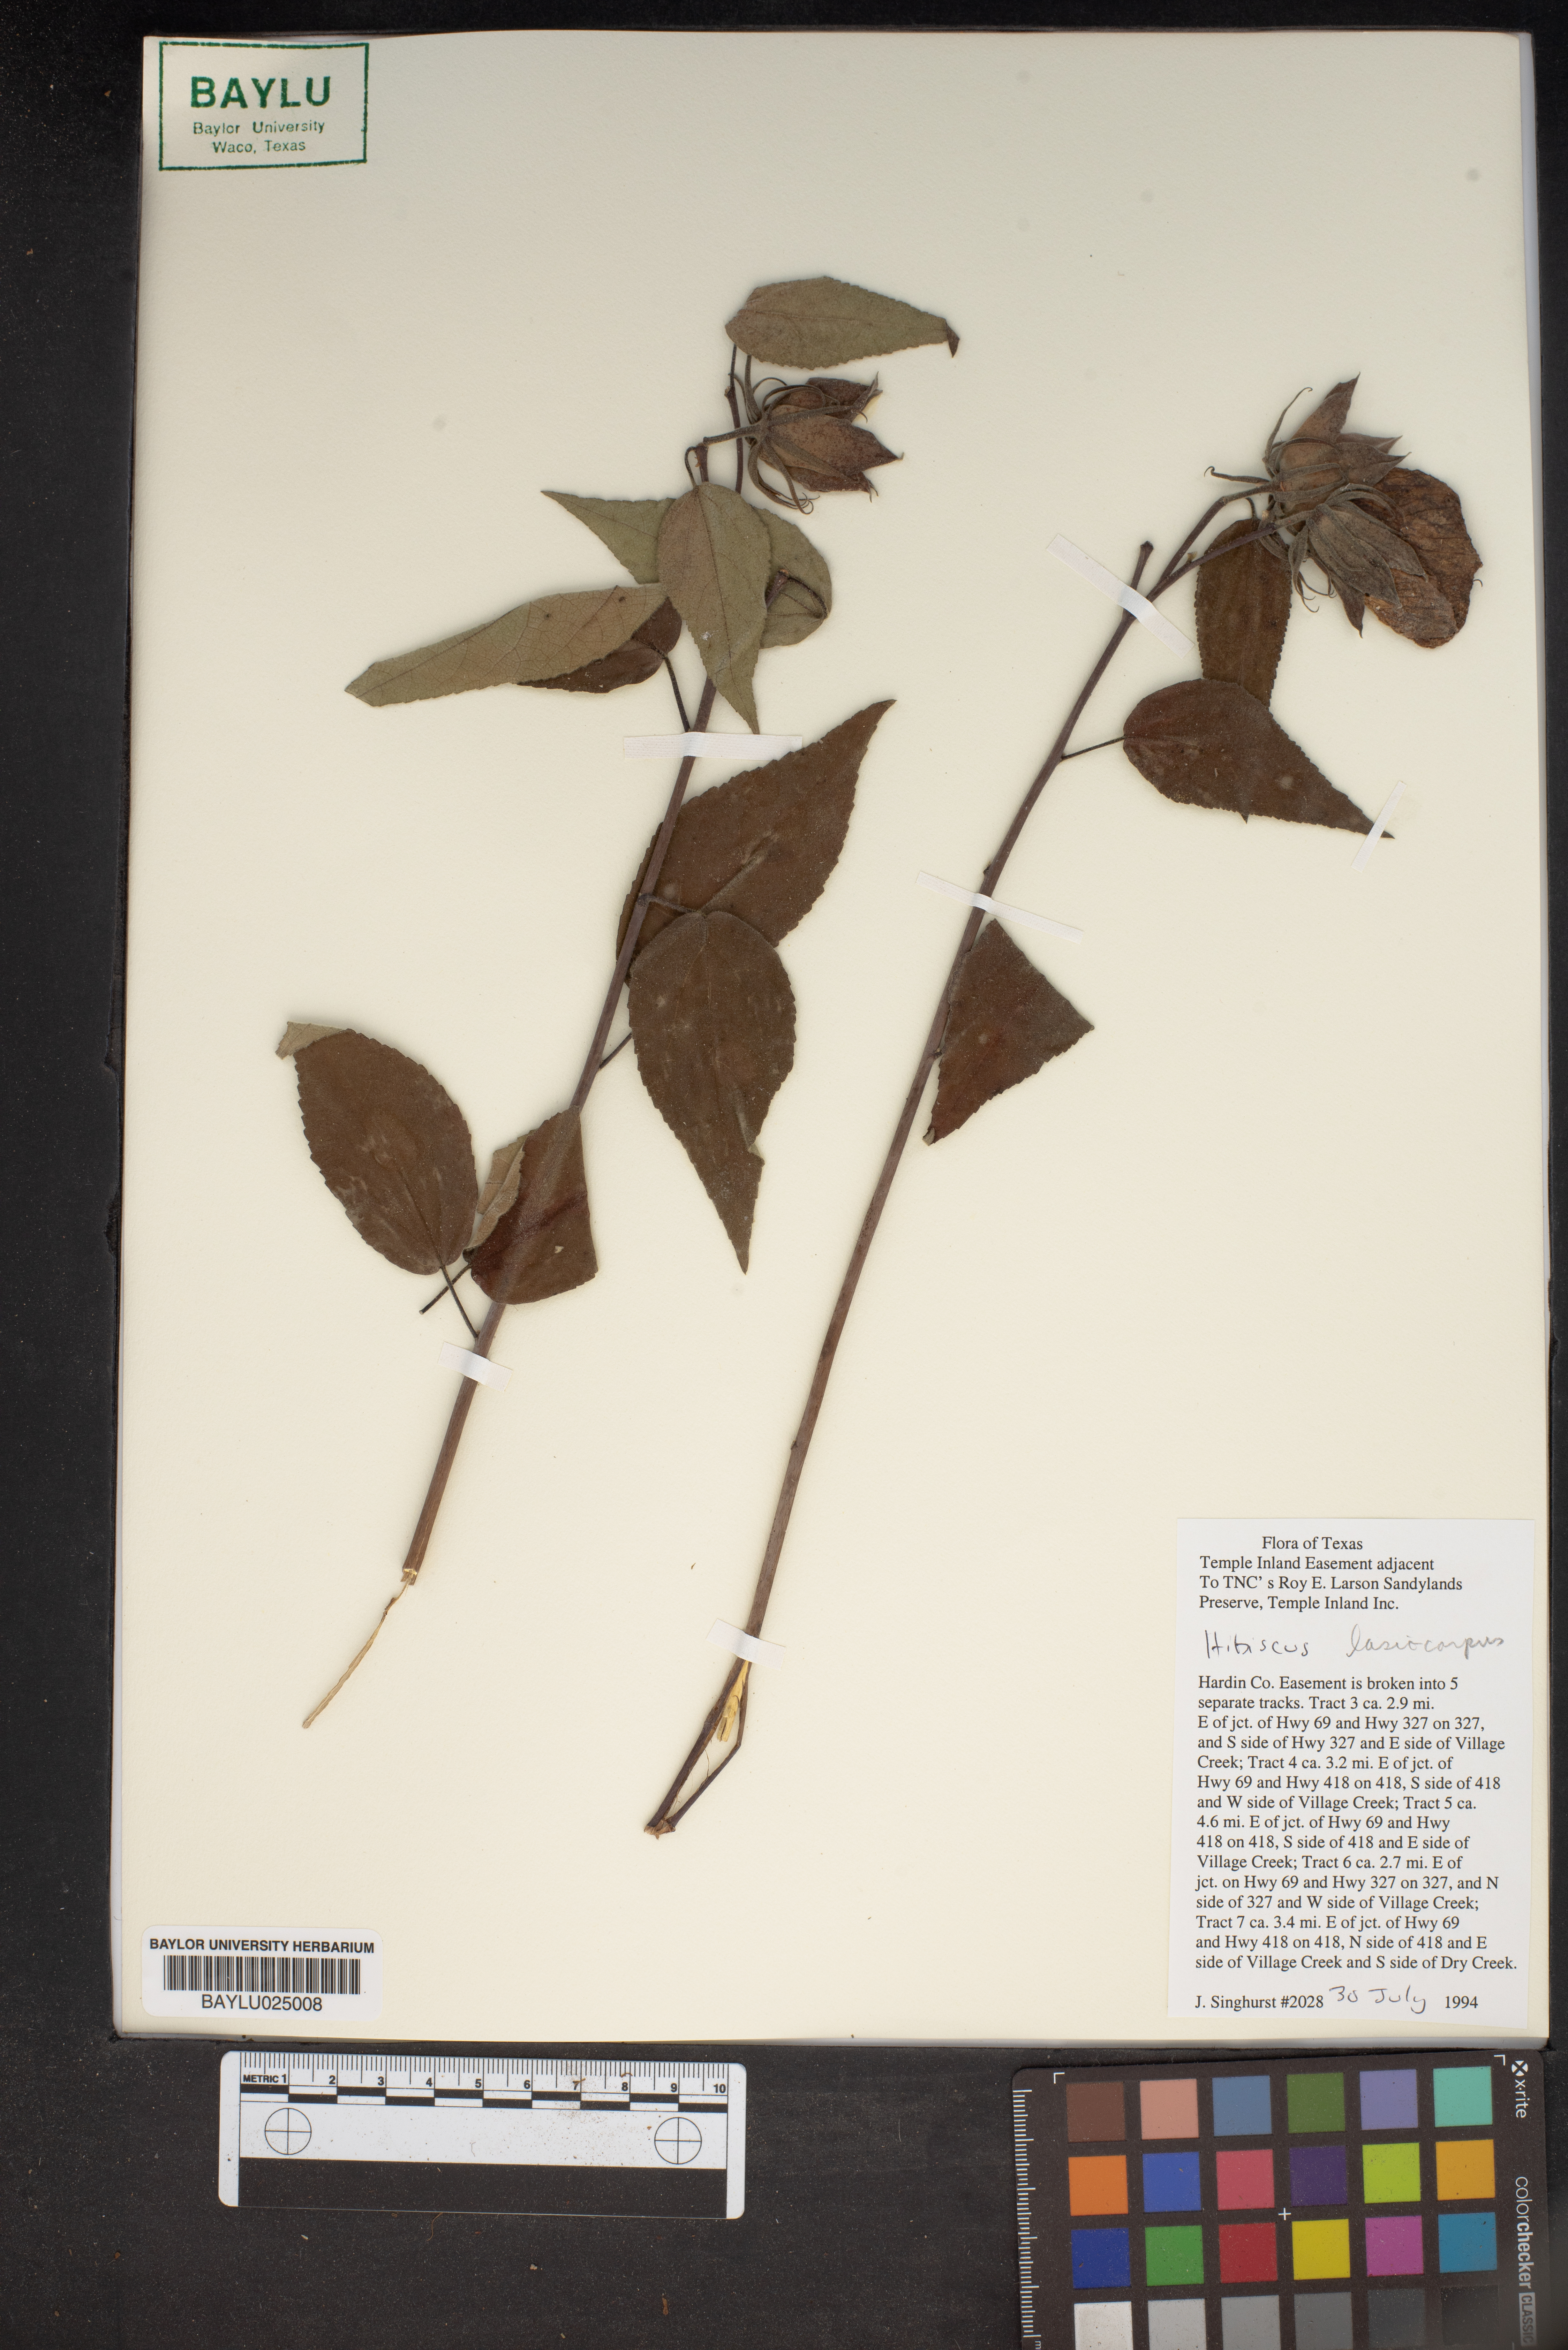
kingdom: Plantae
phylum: Tracheophyta
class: Magnoliopsida
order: Malvales
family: Malvaceae
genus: Hibiscus
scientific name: Hibiscus moscheutos
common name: Common rose-mallow
